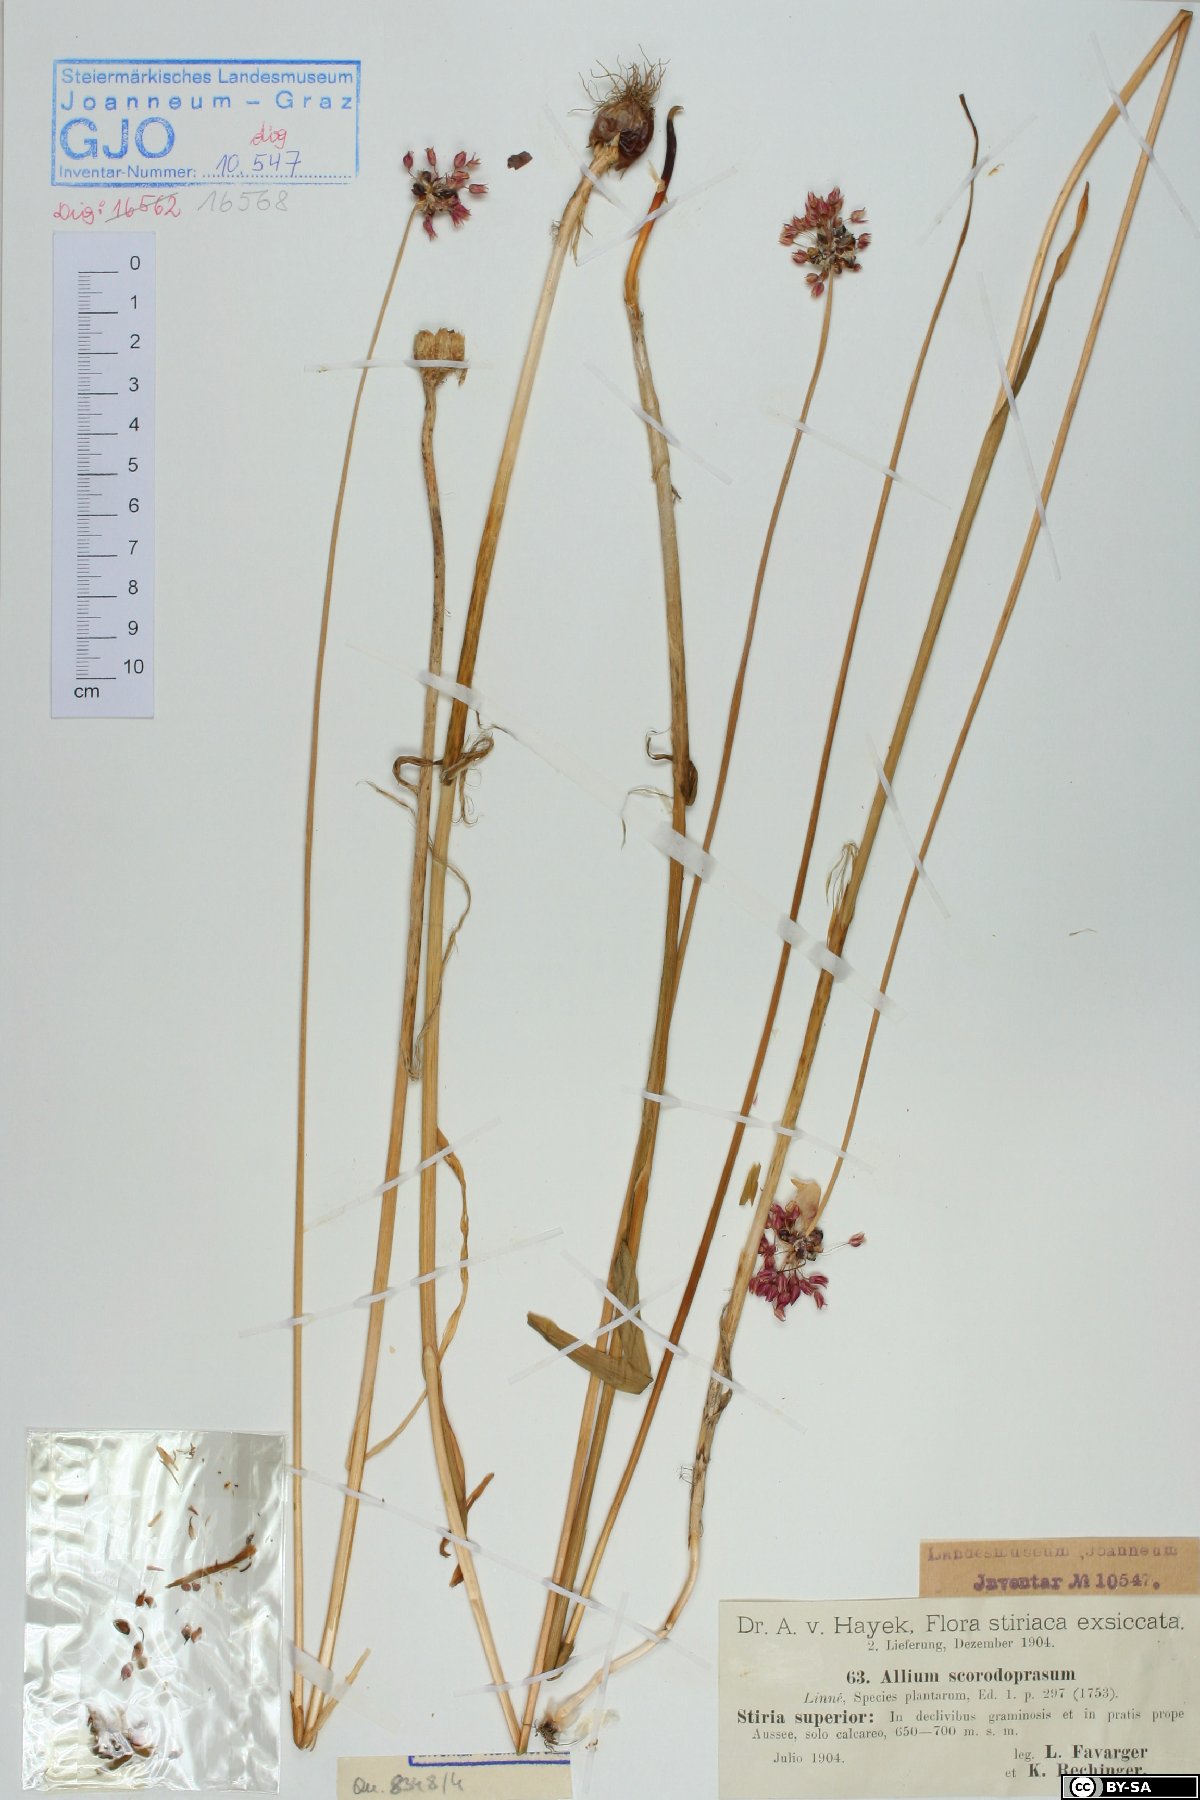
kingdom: Plantae
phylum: Tracheophyta
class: Liliopsida
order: Asparagales
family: Amaryllidaceae
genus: Allium
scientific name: Allium scorodoprasum
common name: Sand leek
